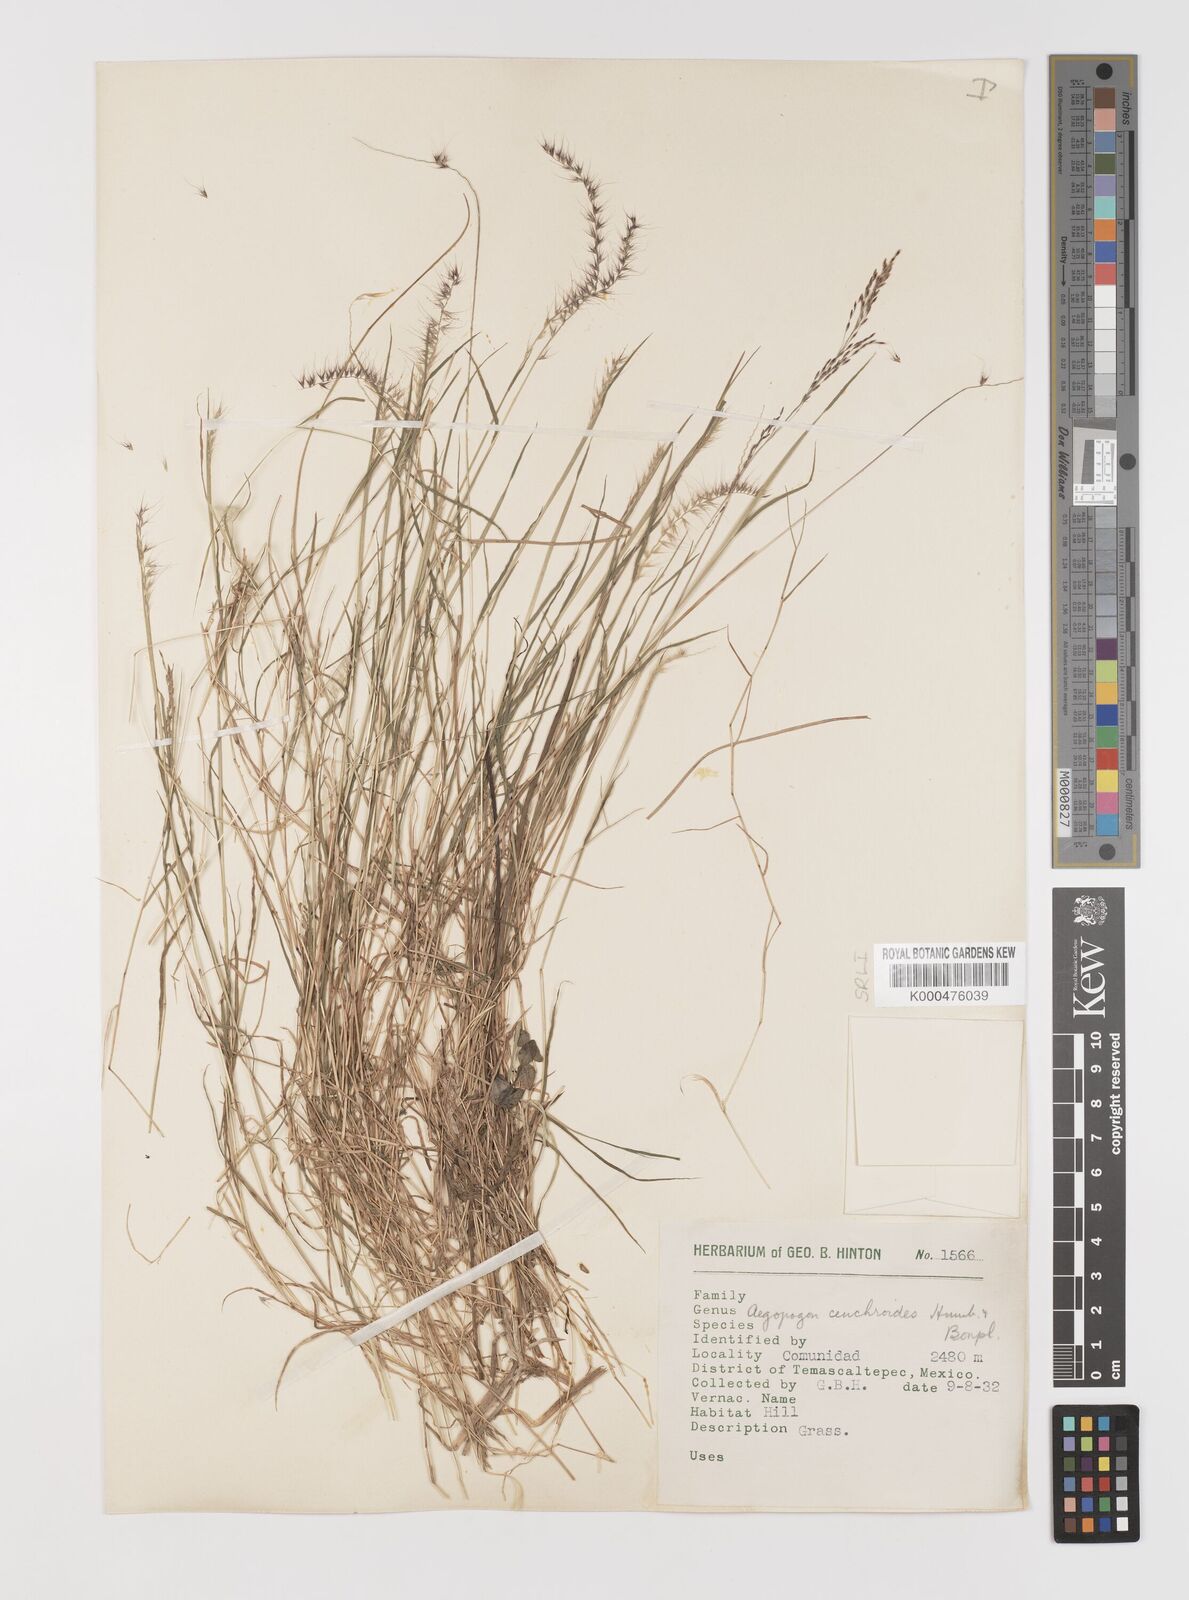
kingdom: Plantae
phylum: Tracheophyta
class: Liliopsida
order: Poales
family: Poaceae
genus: Muhlenbergia
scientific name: Muhlenbergia cenchroides
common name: Relaxgrass
